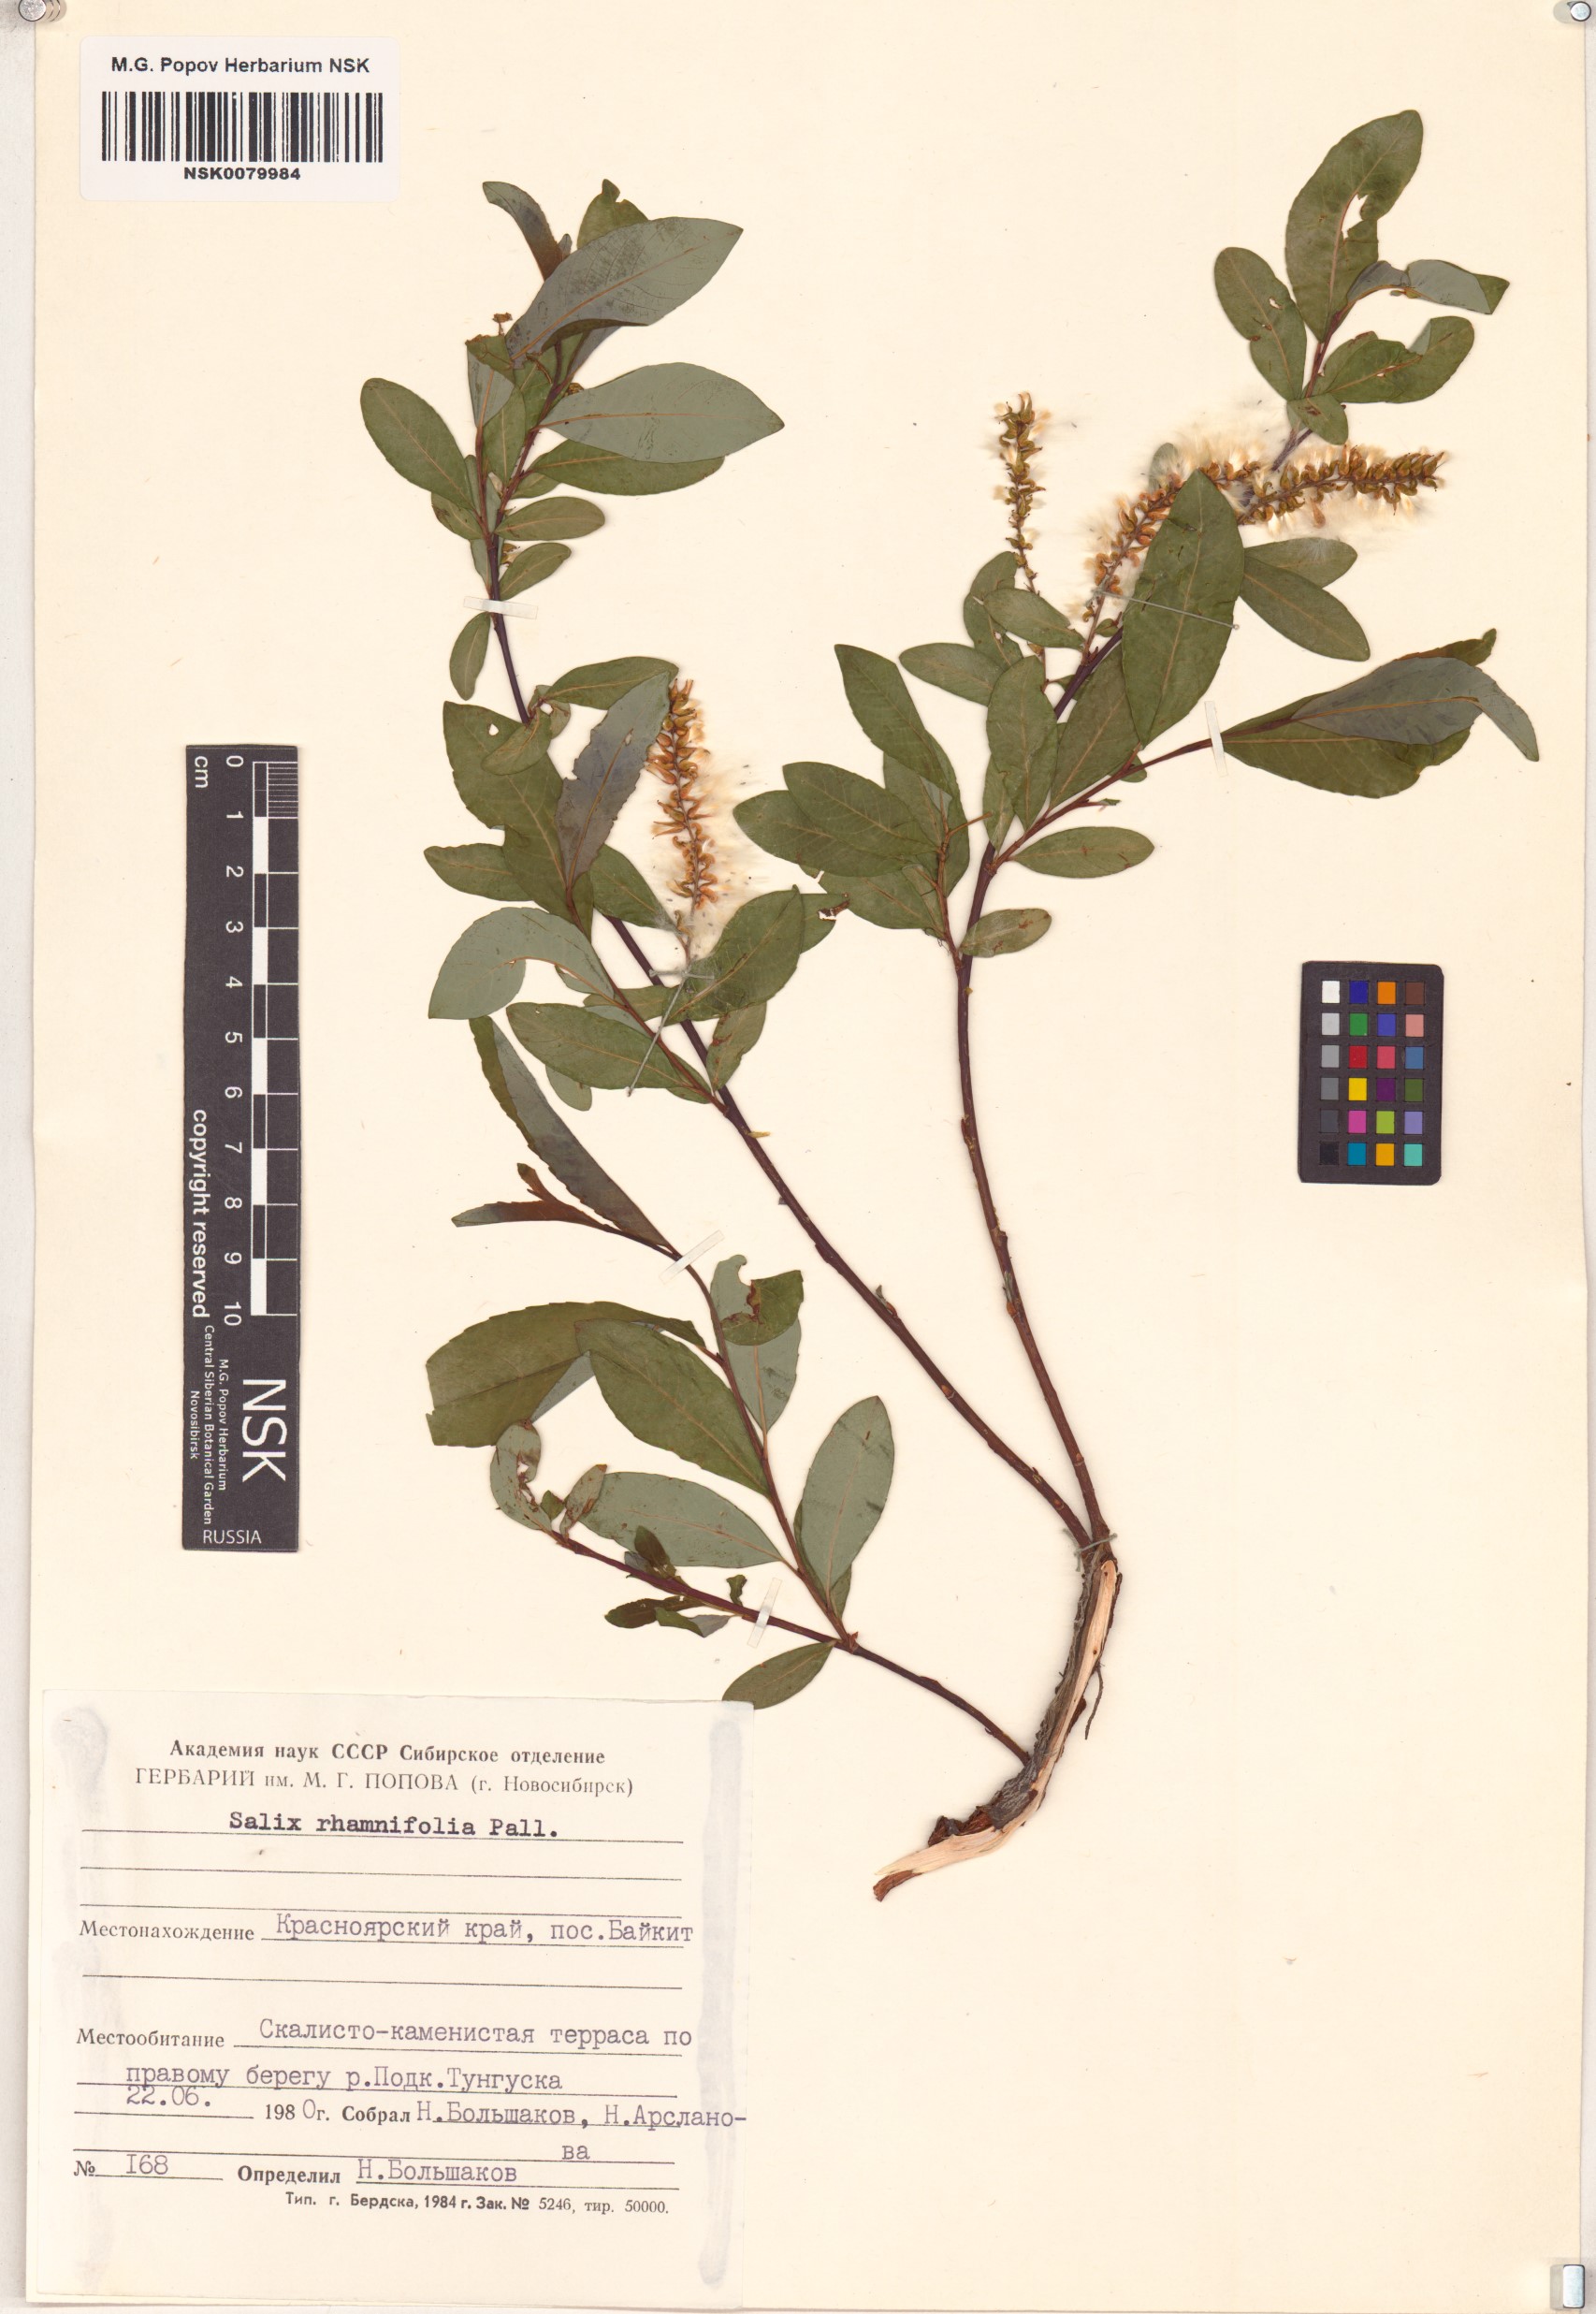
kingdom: Plantae
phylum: Tracheophyta
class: Magnoliopsida
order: Malpighiales
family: Salicaceae
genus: Salix
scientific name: Salix rhamnifolia
